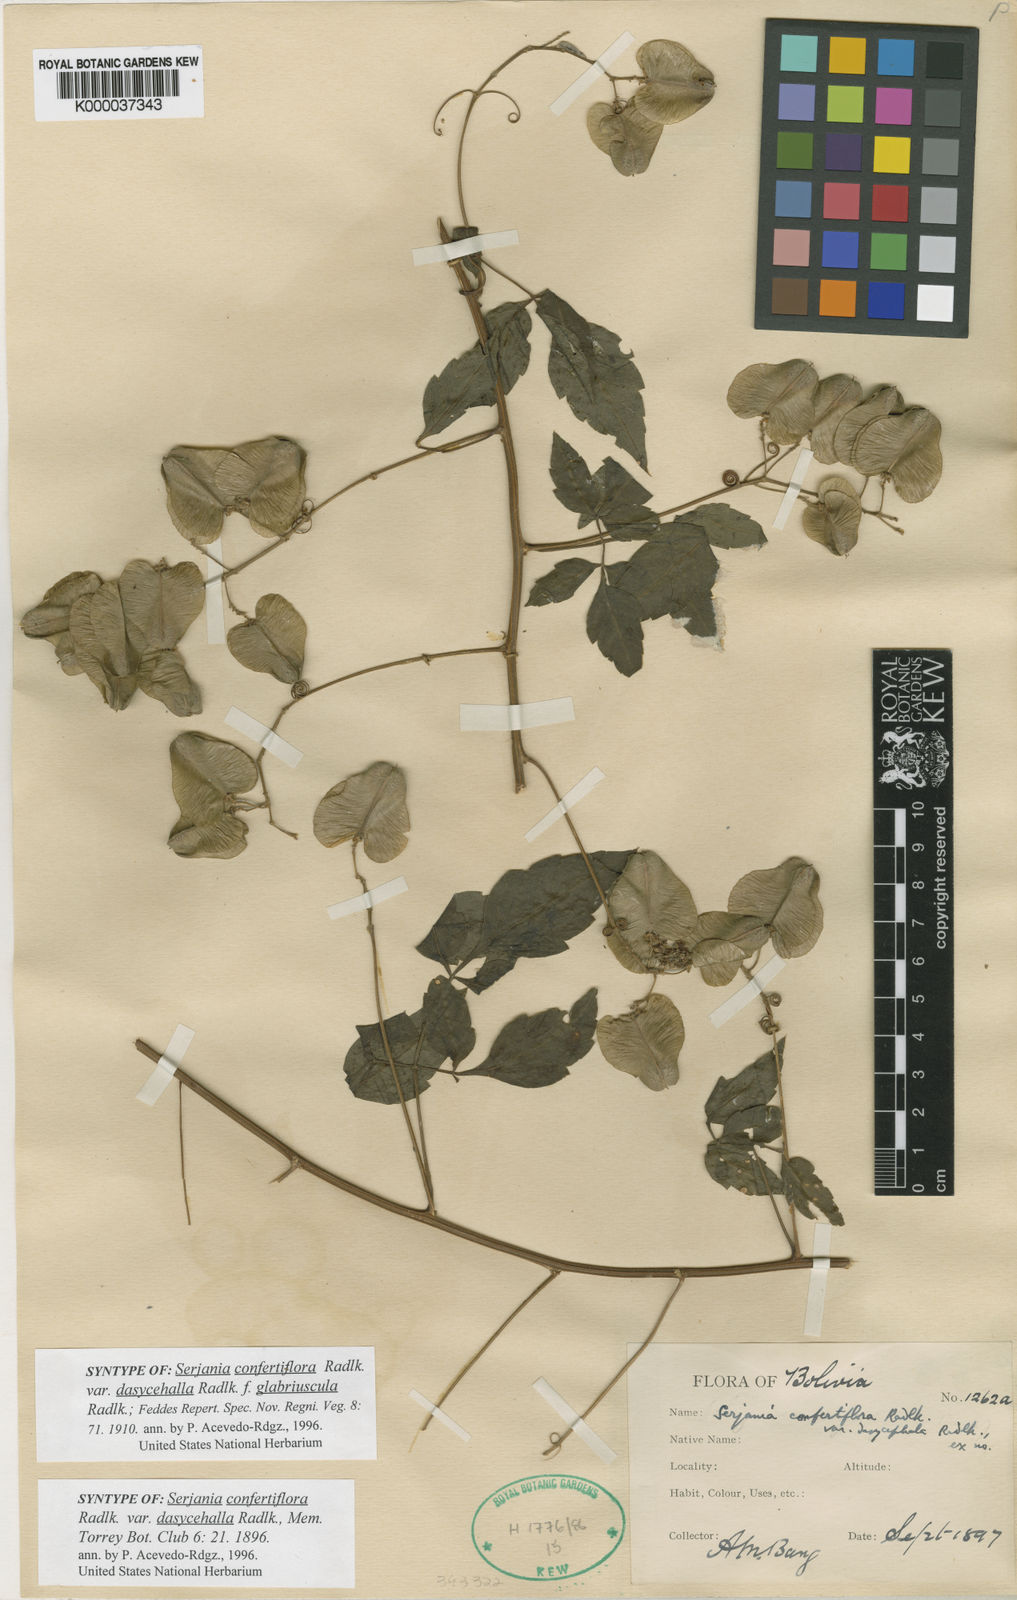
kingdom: Plantae
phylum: Tracheophyta
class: Magnoliopsida
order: Sapindales
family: Sapindaceae
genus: Serjania
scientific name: Serjania confertiflora
